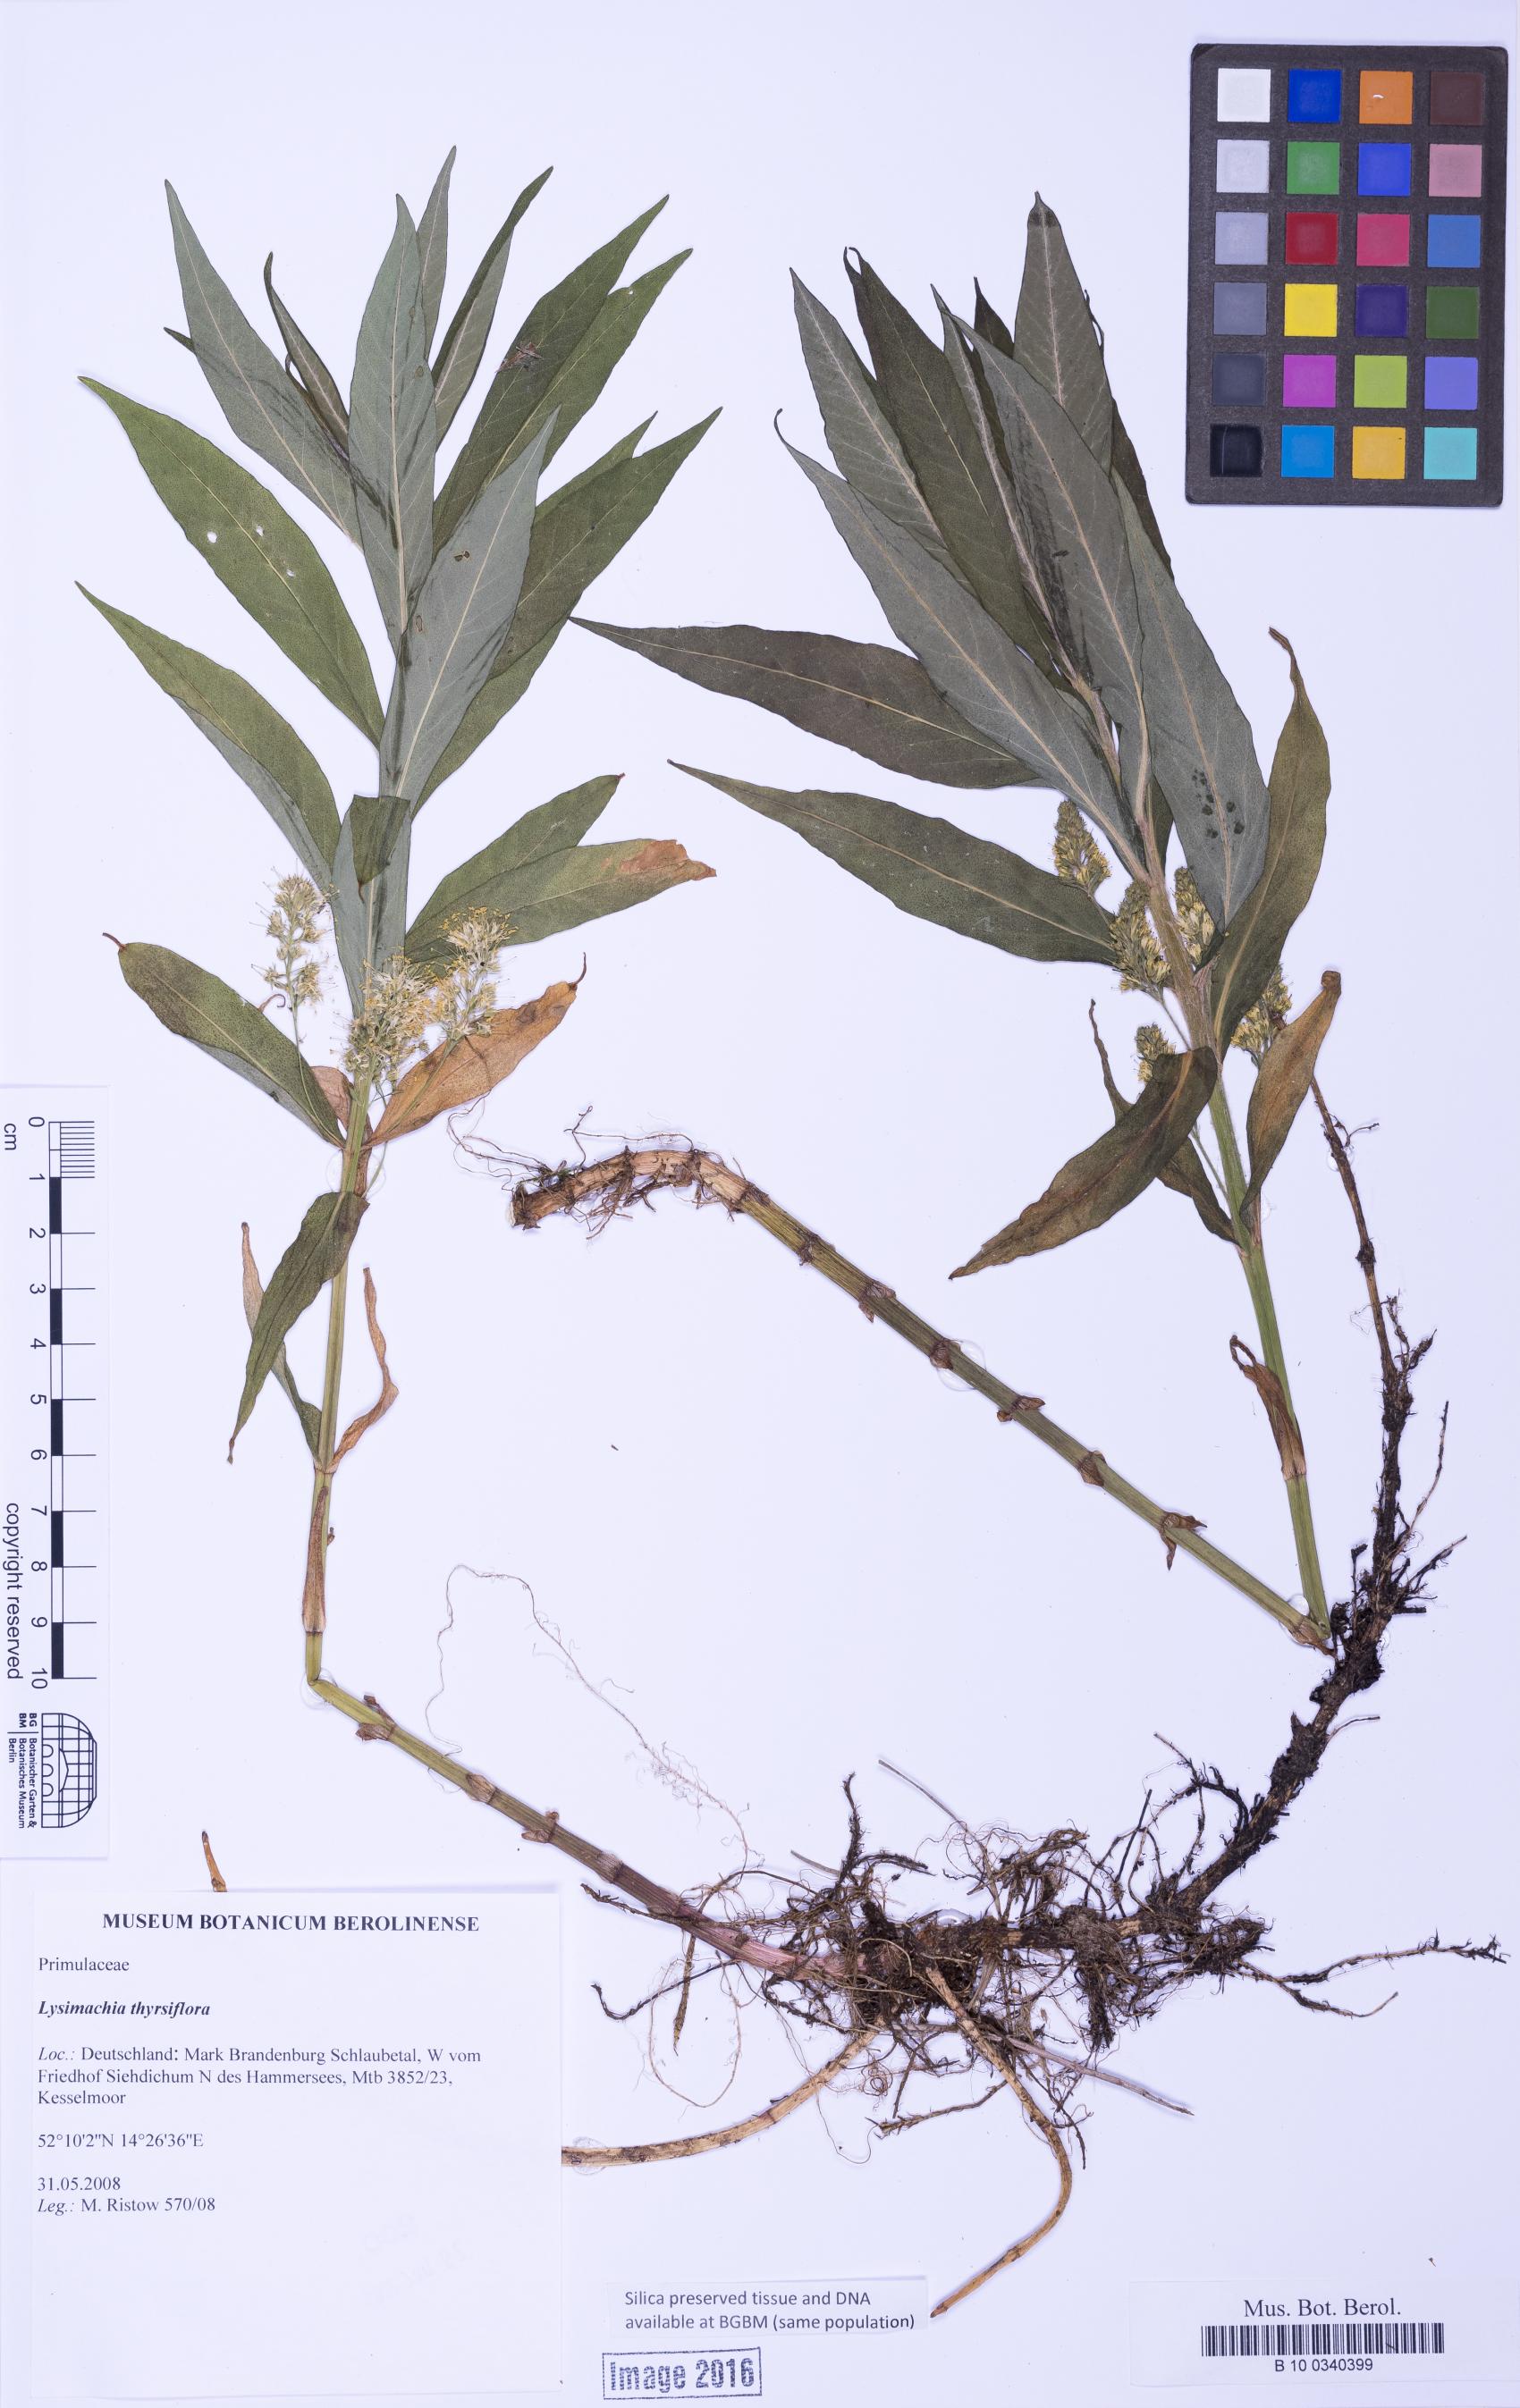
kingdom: Plantae
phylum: Tracheophyta
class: Magnoliopsida
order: Ericales
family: Primulaceae
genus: Lysimachia
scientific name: Lysimachia thyrsiflora
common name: Tufted loosestrife
